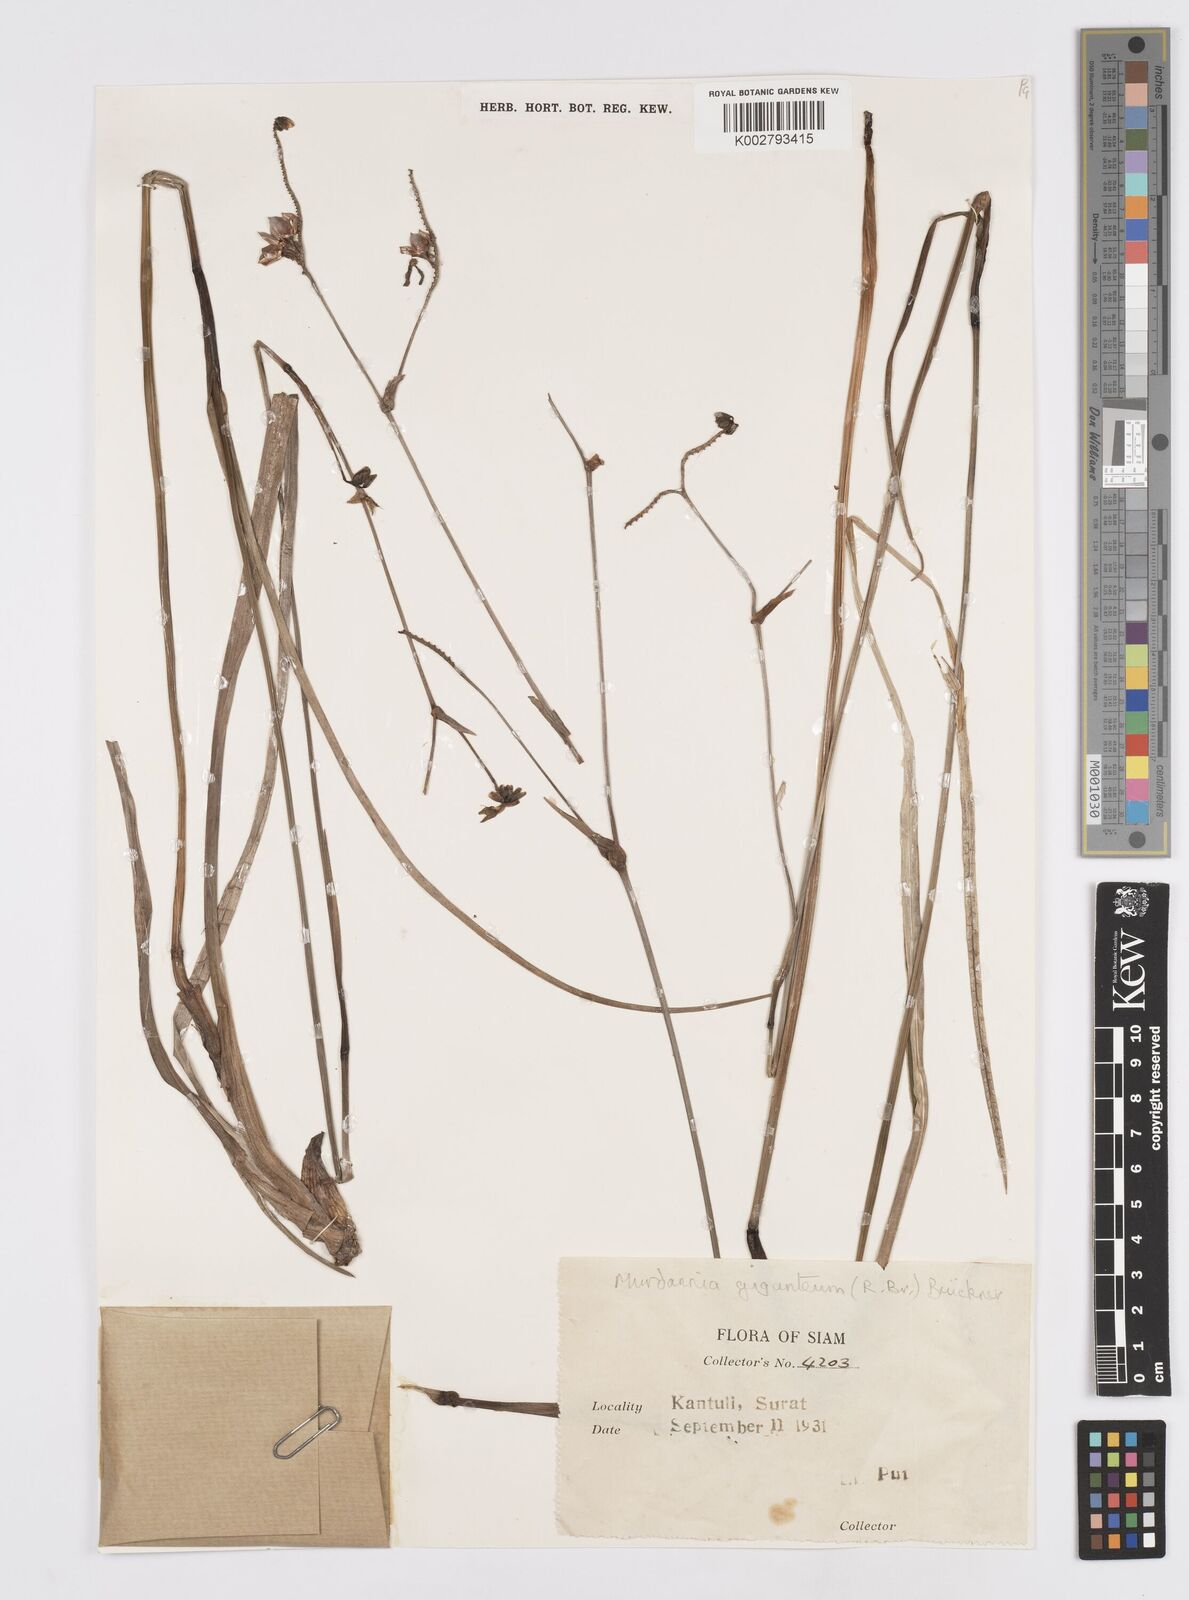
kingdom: Plantae
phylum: Tracheophyta
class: Liliopsida
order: Commelinales
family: Commelinaceae
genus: Murdannia
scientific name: Murdannia gigantea
